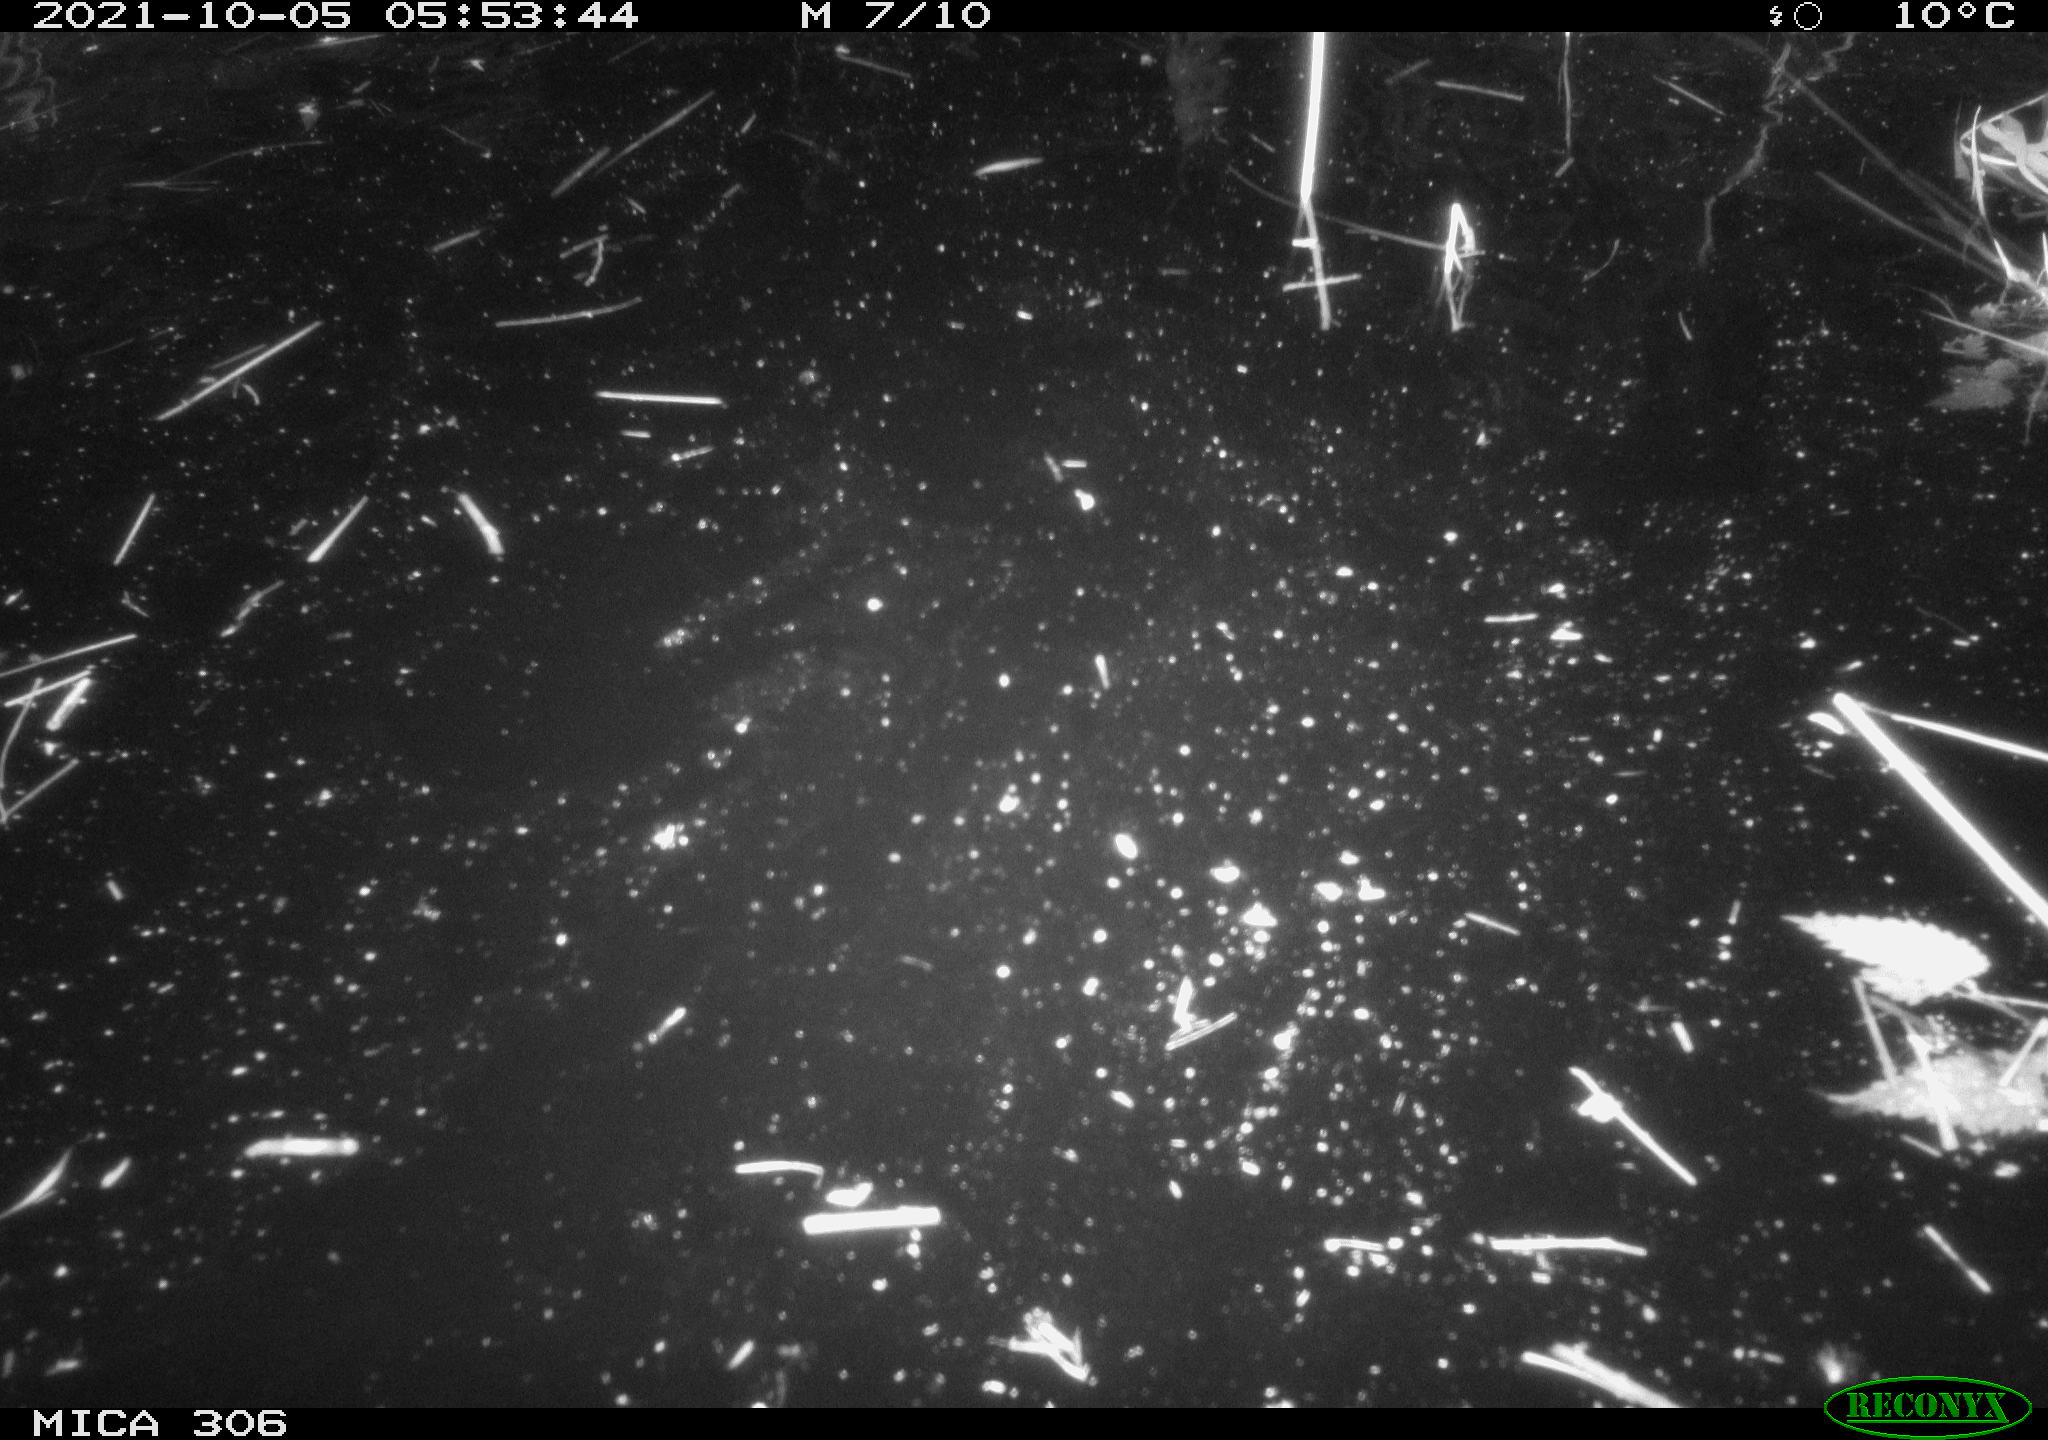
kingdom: Animalia
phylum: Chordata
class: Mammalia
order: Rodentia
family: Cricetidae
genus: Ondatra
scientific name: Ondatra zibethicus
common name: Muskrat
